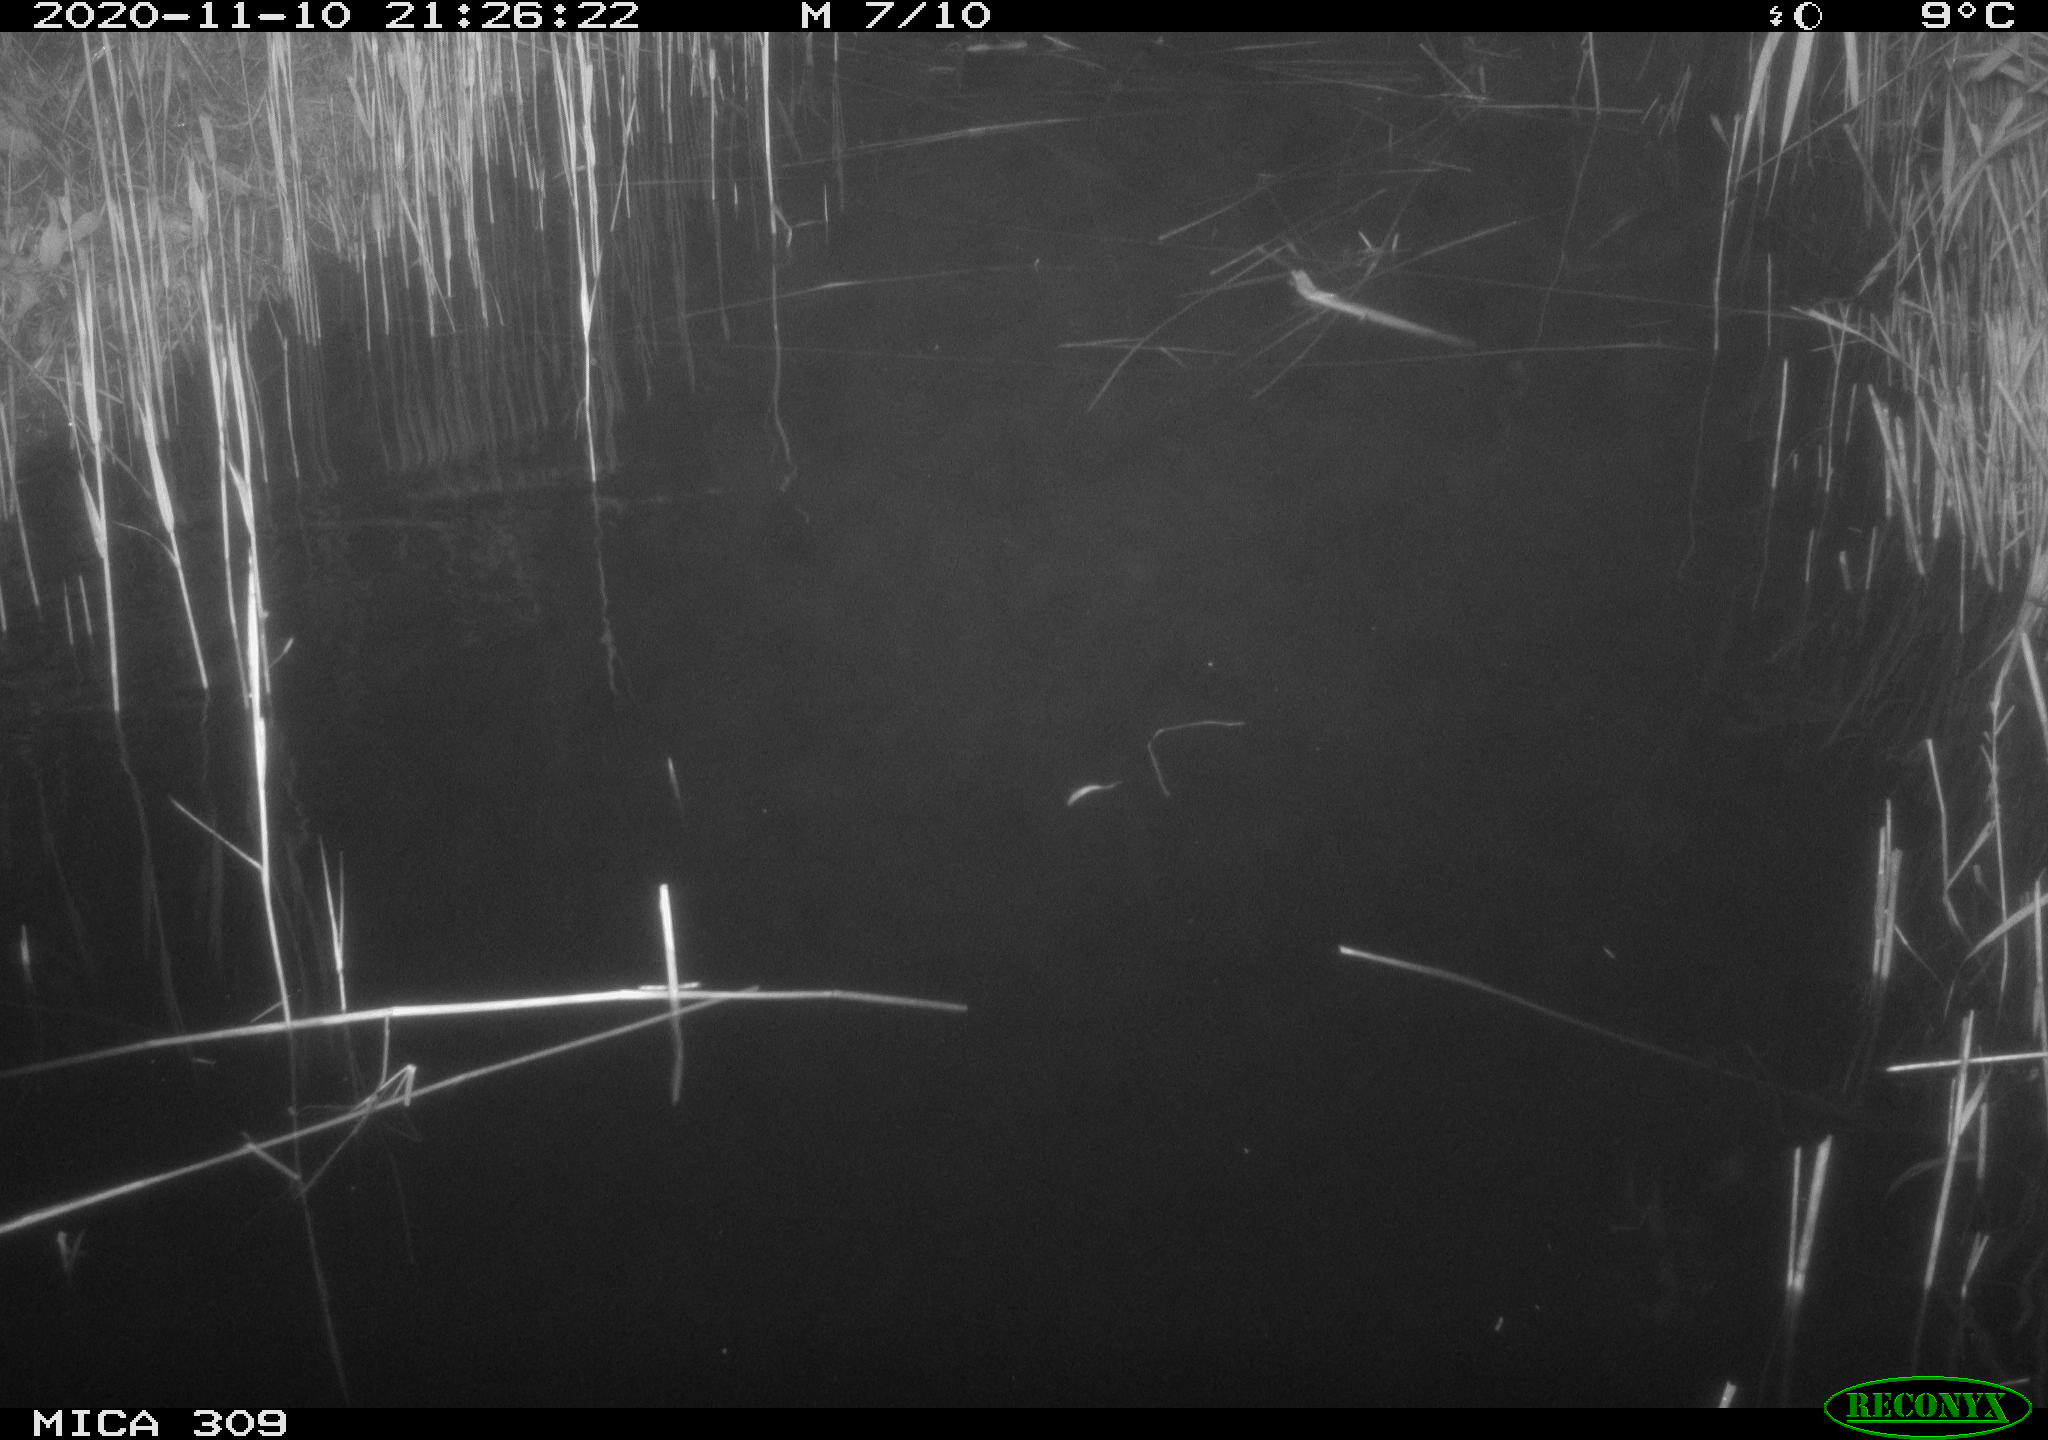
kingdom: Animalia
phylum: Chordata
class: Mammalia
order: Rodentia
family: Muridae
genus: Rattus
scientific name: Rattus norvegicus
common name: Brown rat
